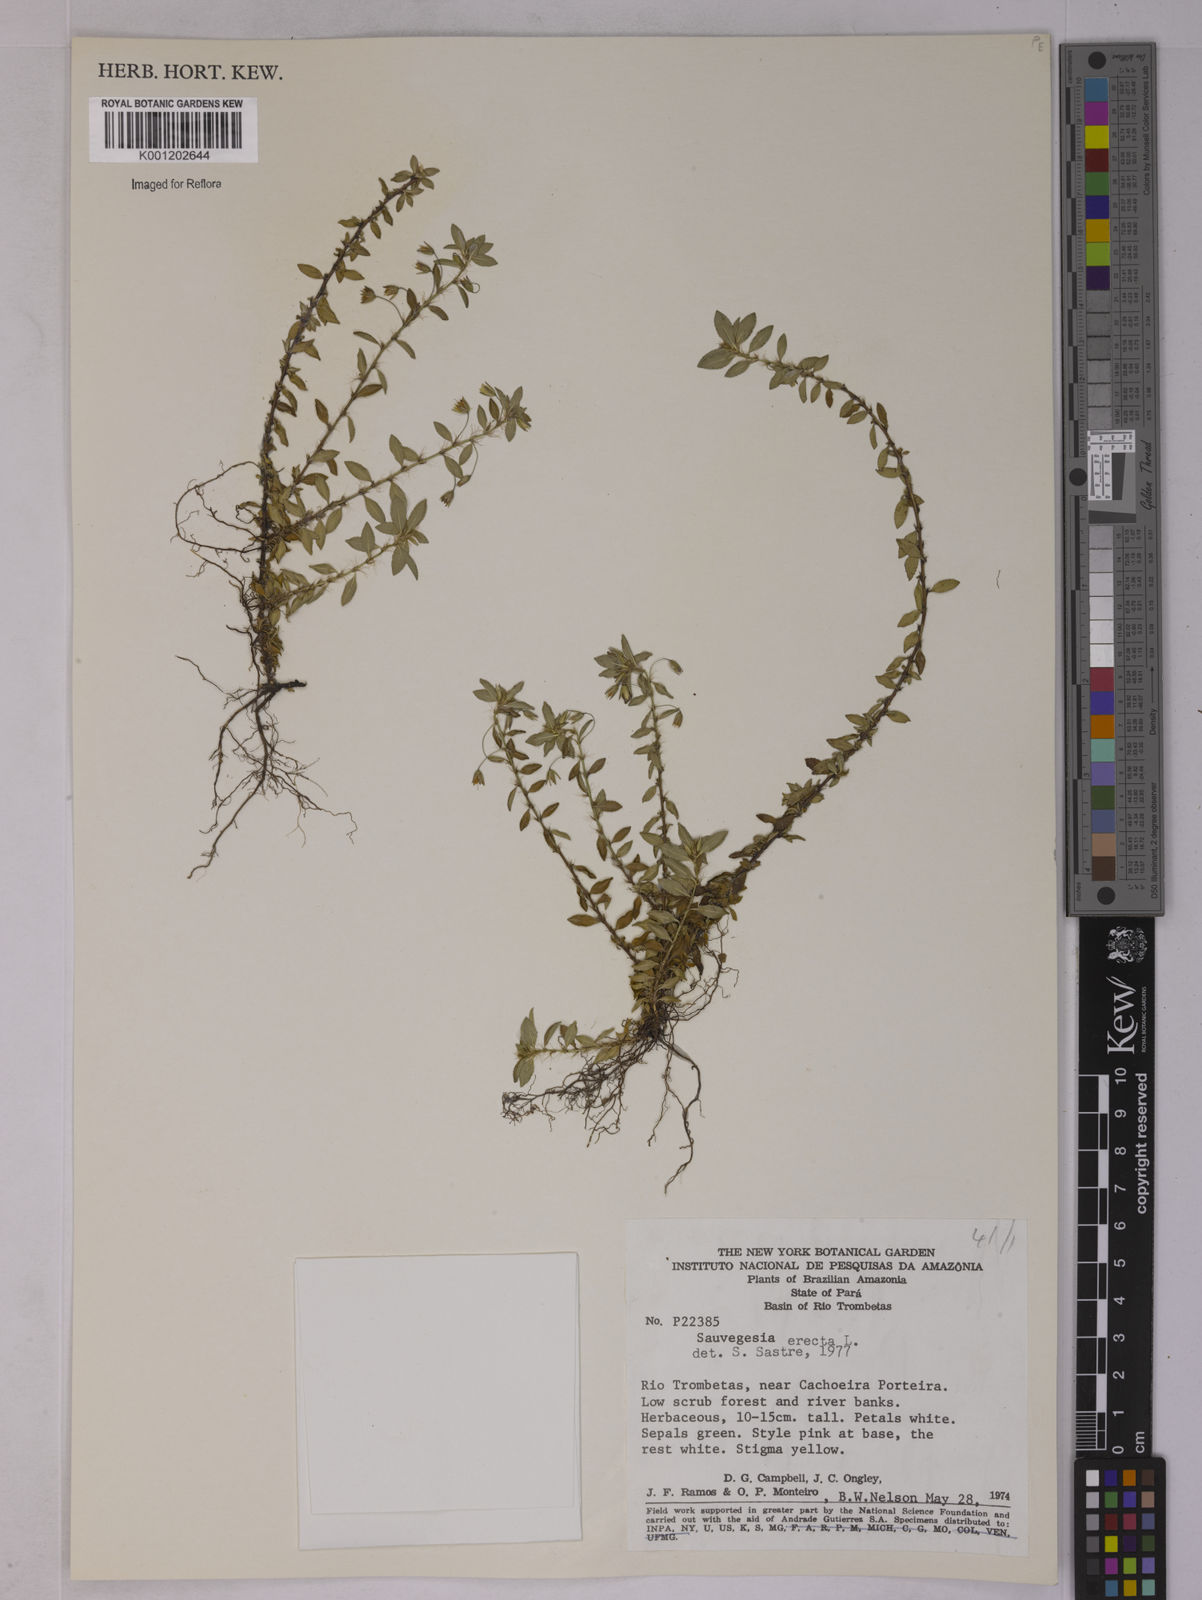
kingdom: Plantae
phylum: Tracheophyta
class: Magnoliopsida
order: Malpighiales
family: Ochnaceae
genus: Sauvagesia
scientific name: Sauvagesia erecta
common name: Creole tea
